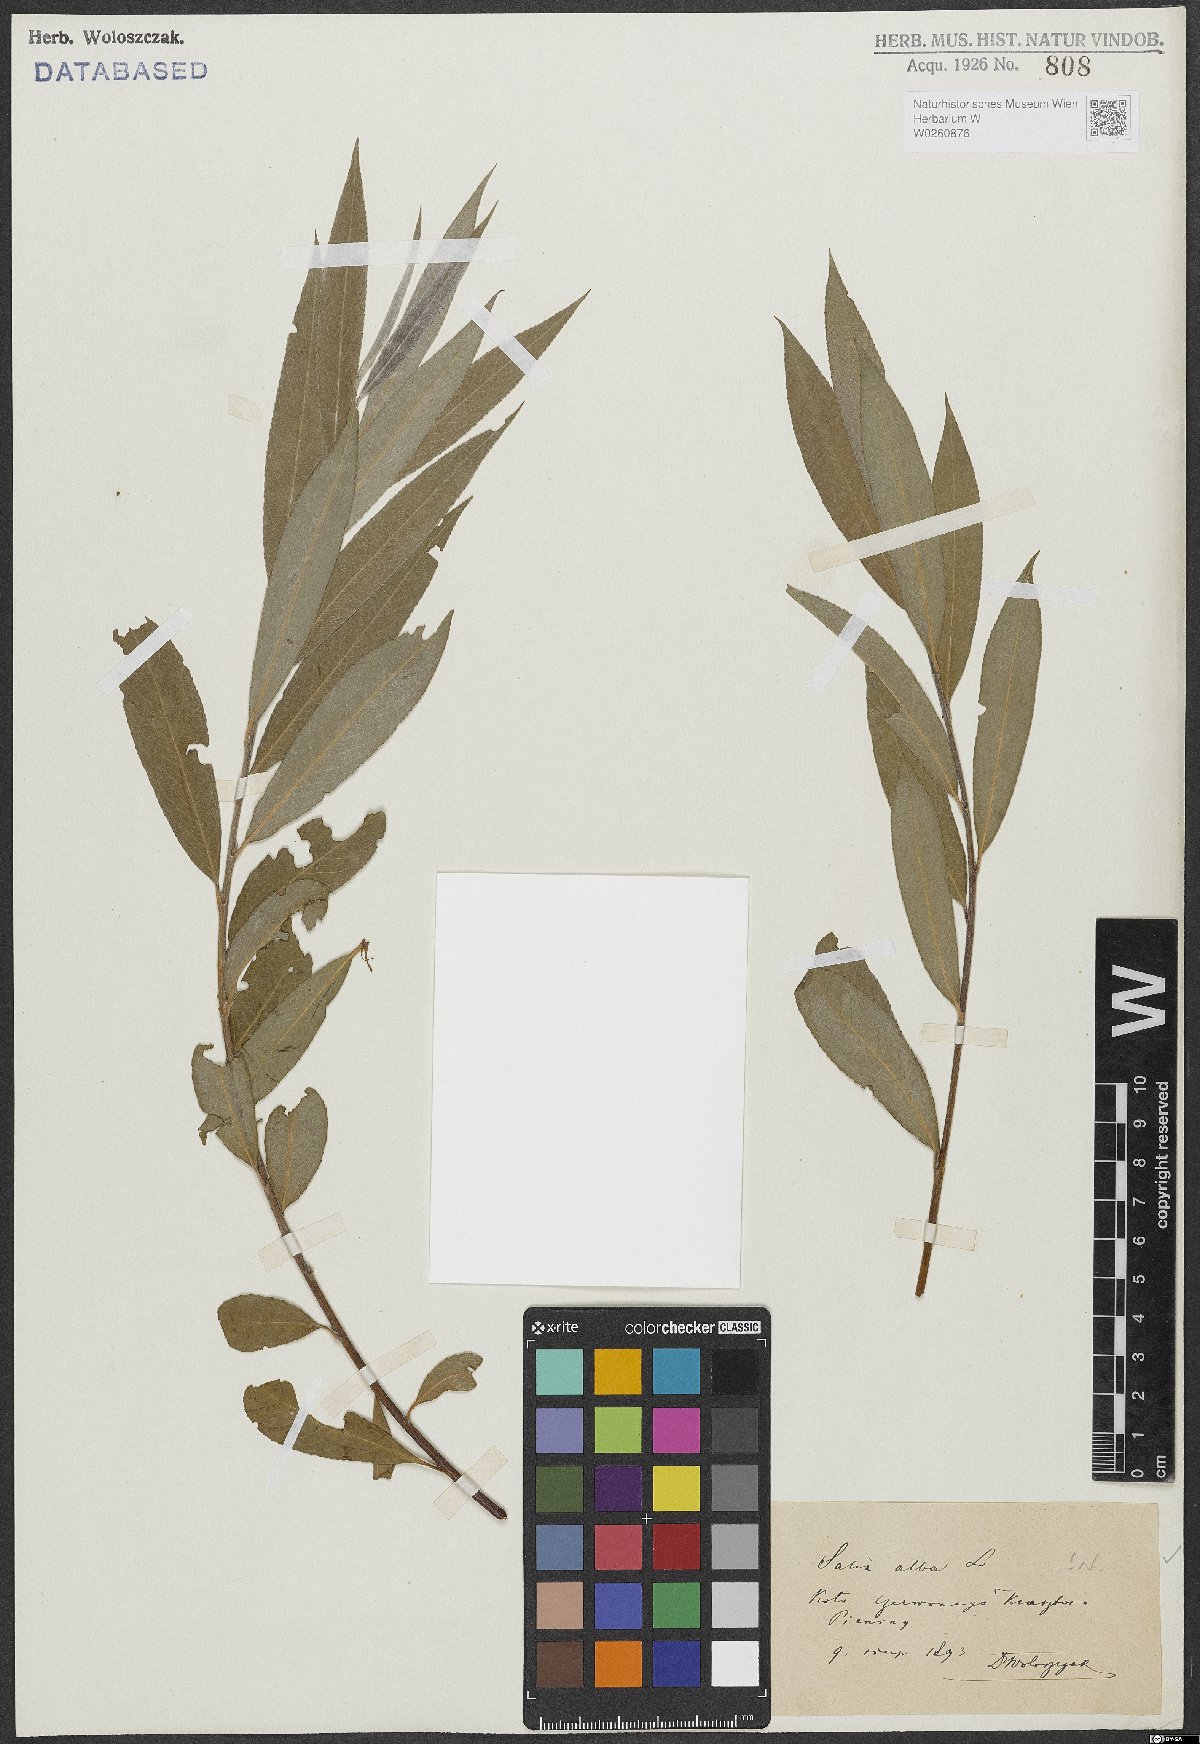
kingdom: Plantae
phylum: Tracheophyta
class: Magnoliopsida
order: Malpighiales
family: Salicaceae
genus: Salix
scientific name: Salix alba
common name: White willow
